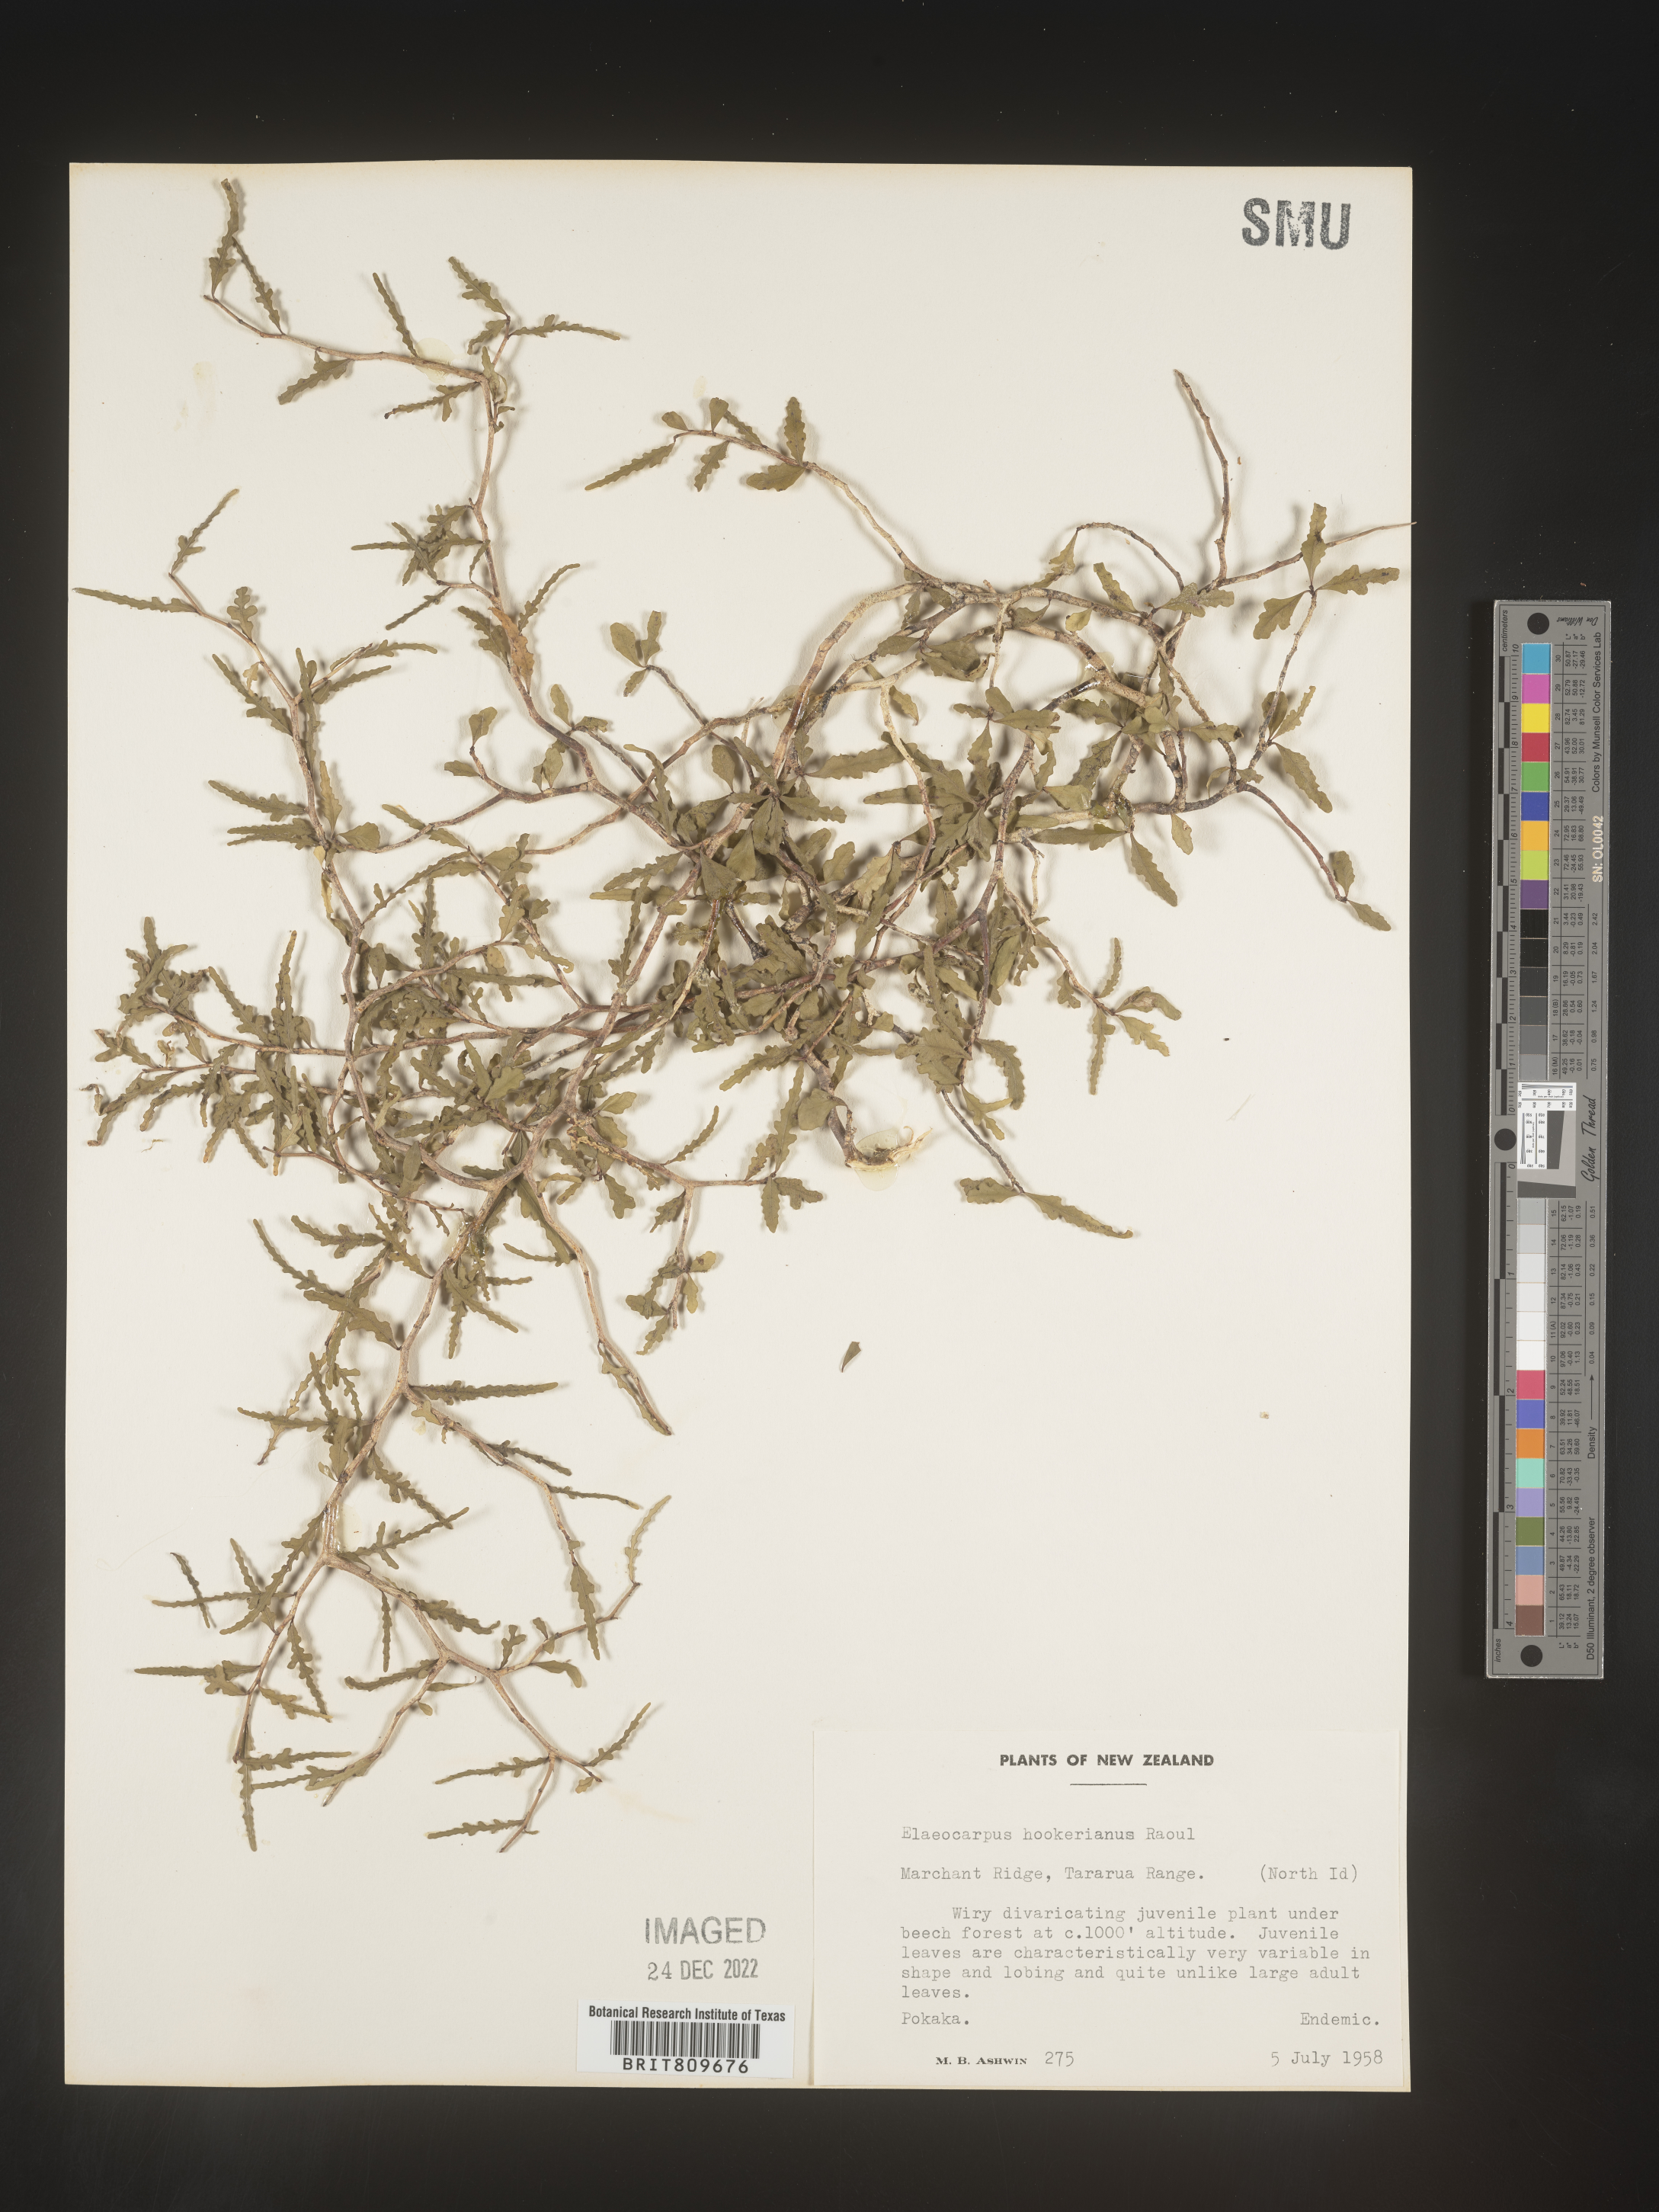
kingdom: Plantae
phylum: Tracheophyta
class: Magnoliopsida
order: Oxalidales
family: Elaeocarpaceae
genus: Elaeocarpus
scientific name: Elaeocarpus
